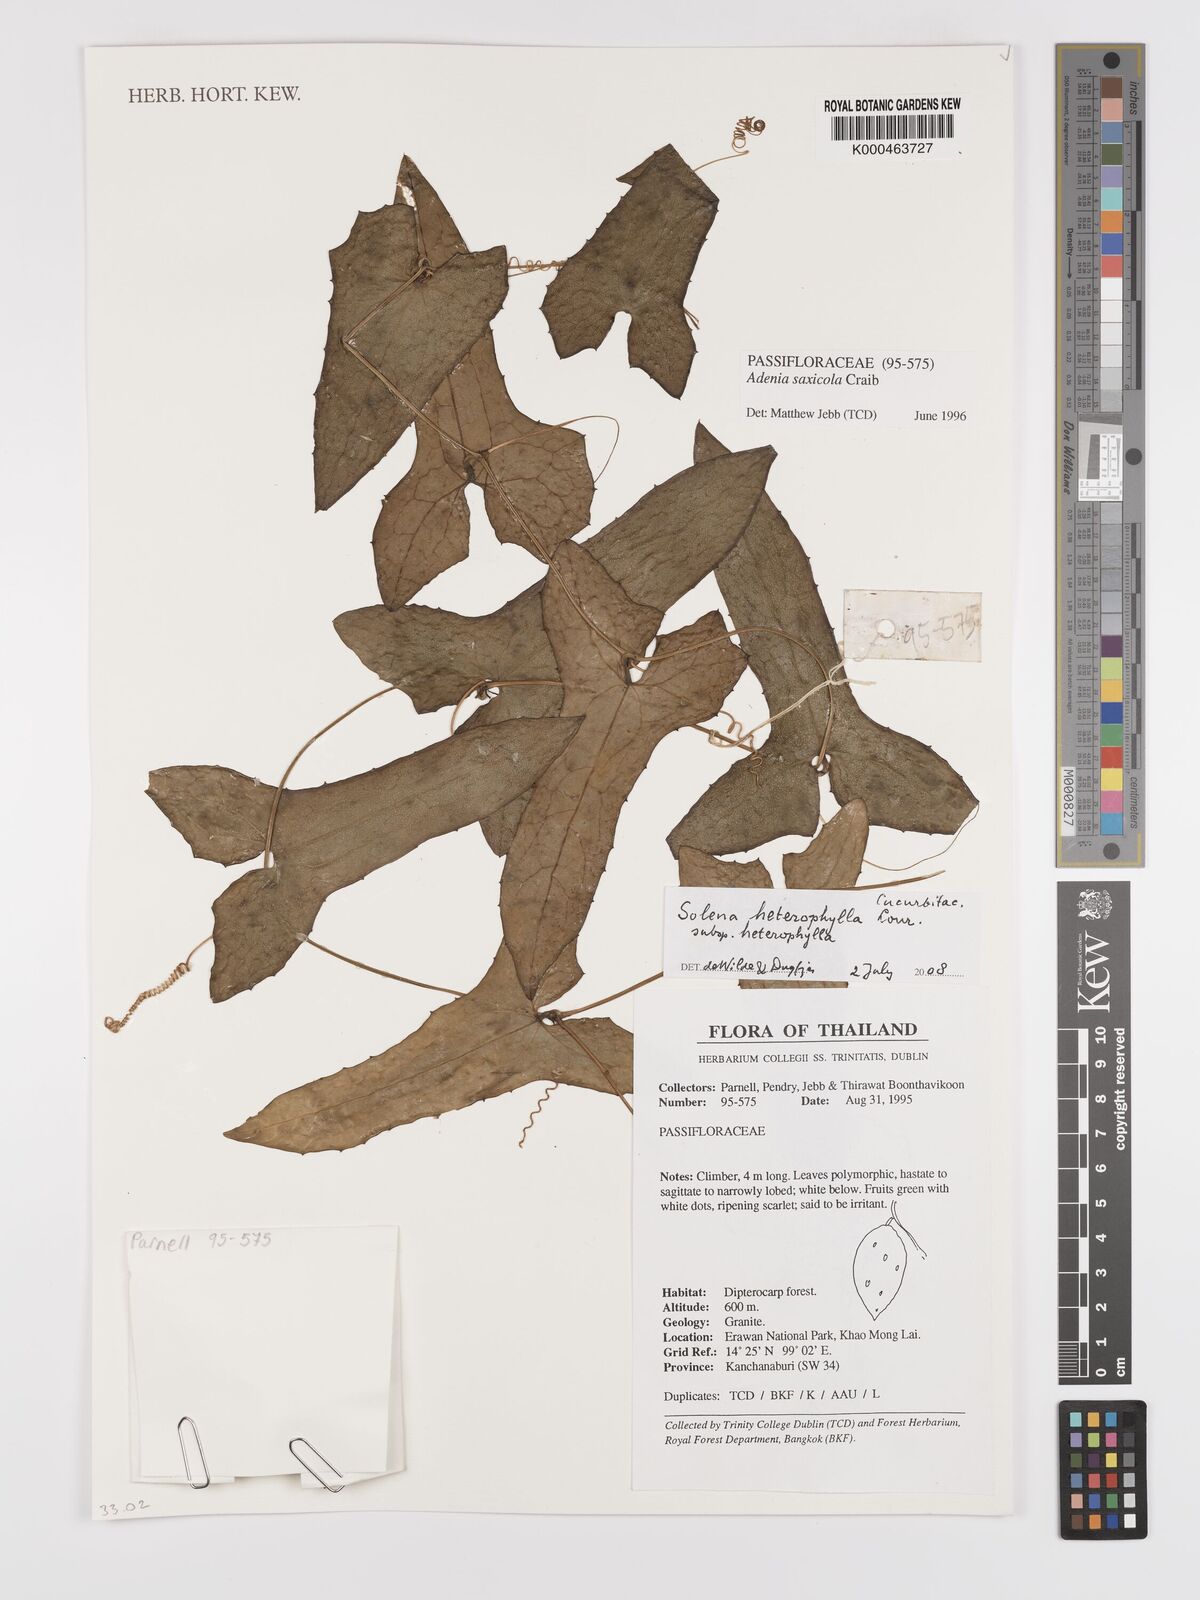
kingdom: Plantae
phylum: Tracheophyta
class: Magnoliopsida
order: Cucurbitales
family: Cucurbitaceae
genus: Solena
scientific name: Solena heterophylla
